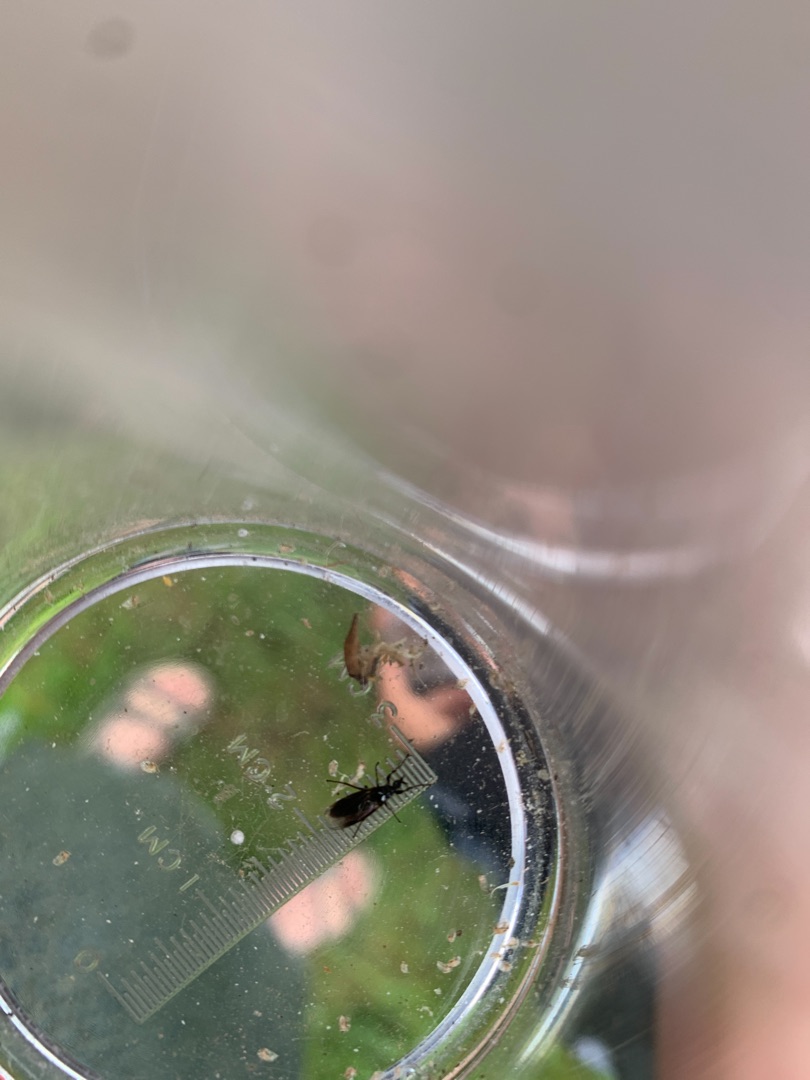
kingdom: Animalia
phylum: Arthropoda
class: Insecta
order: Diptera
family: Bibionidae
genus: Dilophus
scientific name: Dilophus febrilis
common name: Græshårmyg
